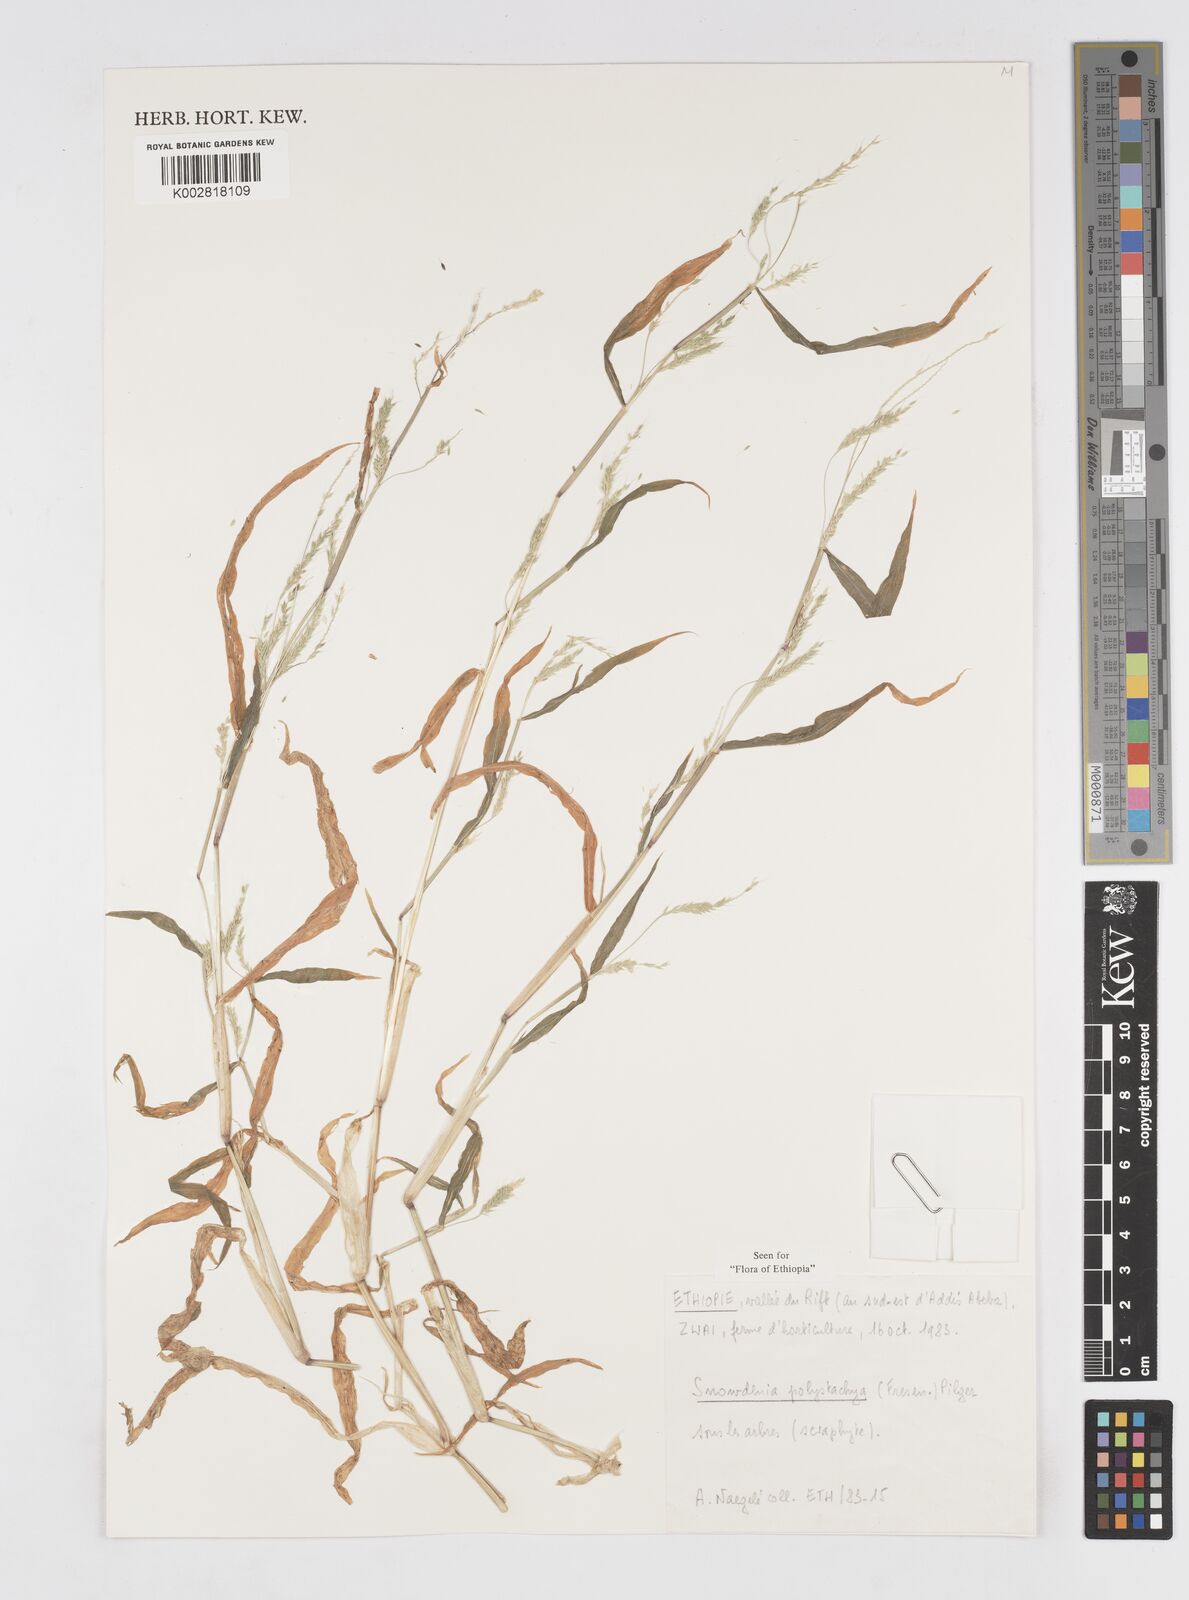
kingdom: Plantae
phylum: Tracheophyta
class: Liliopsida
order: Poales
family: Poaceae
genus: Snowdenia
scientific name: Snowdenia polystachya
